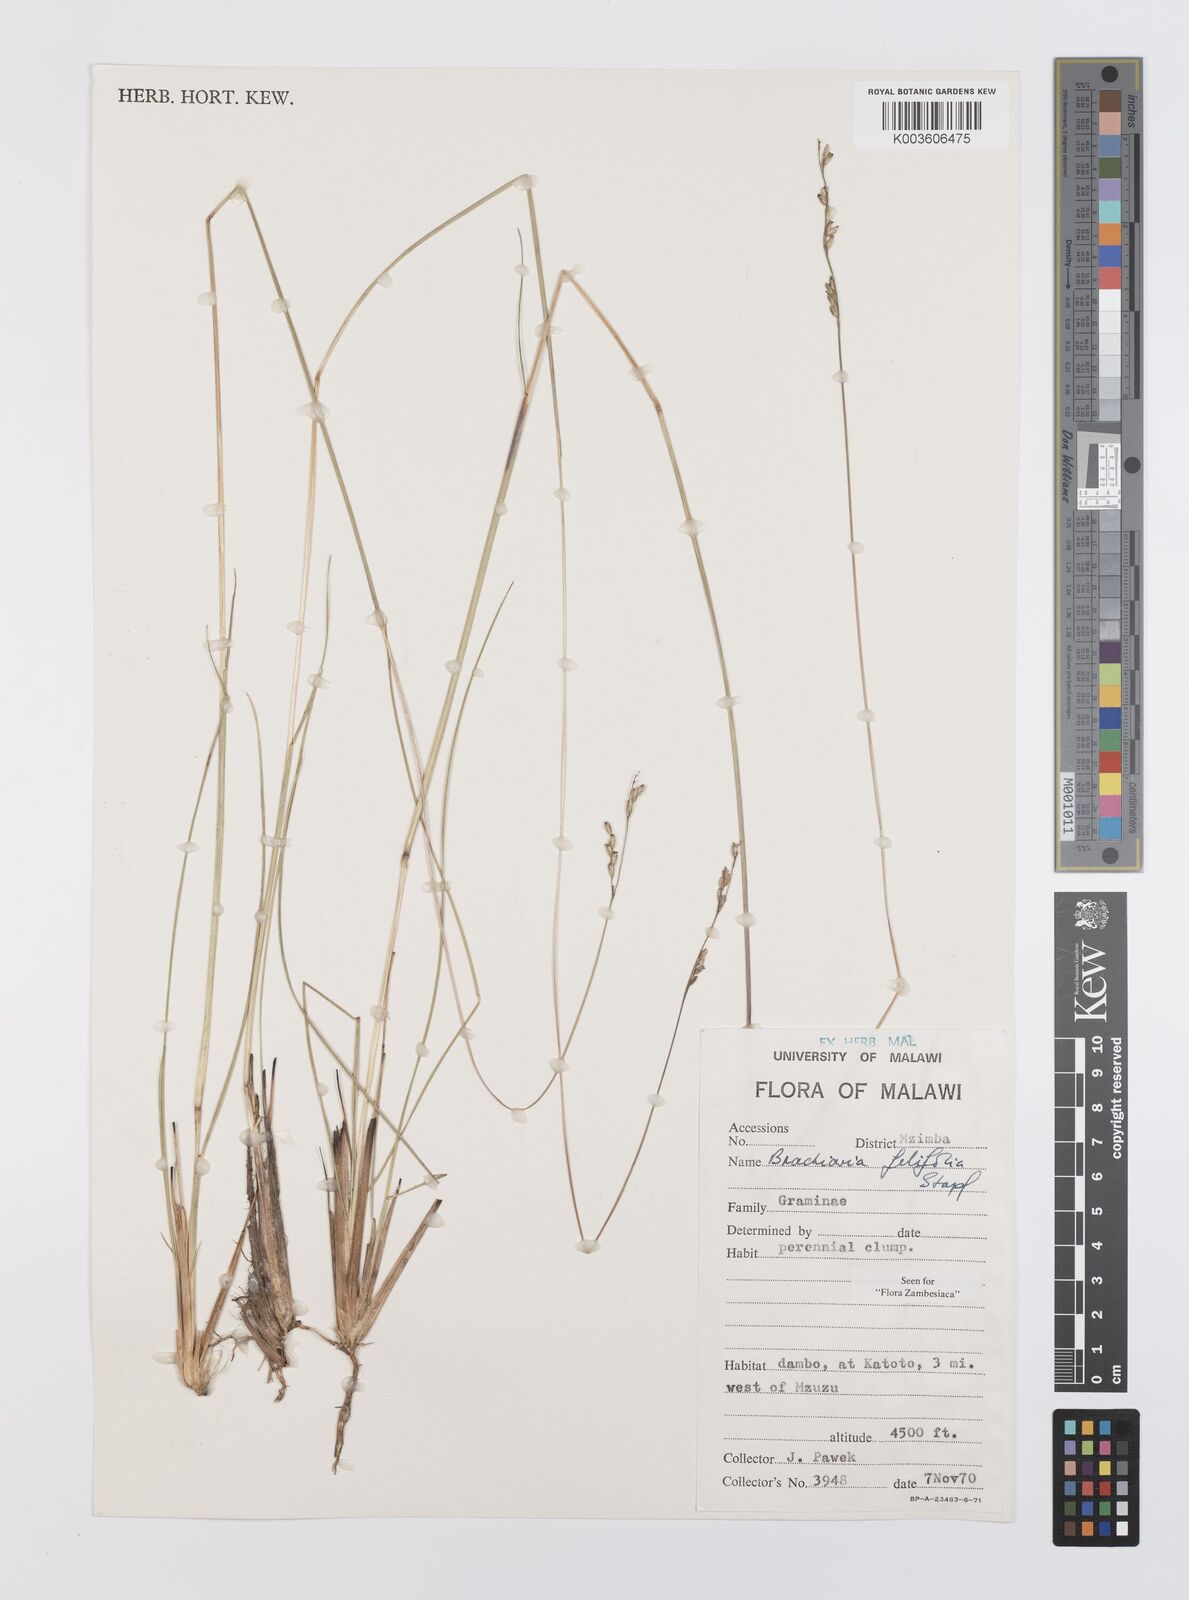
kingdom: Plantae
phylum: Tracheophyta
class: Liliopsida
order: Poales
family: Poaceae
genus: Urochloa
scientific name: Urochloa subulifolia
